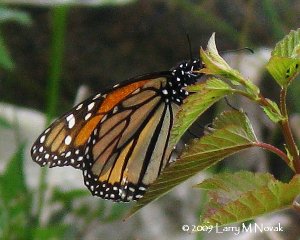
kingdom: Animalia
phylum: Arthropoda
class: Insecta
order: Lepidoptera
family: Nymphalidae
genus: Danaus
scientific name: Danaus plexippus
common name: Monarch
